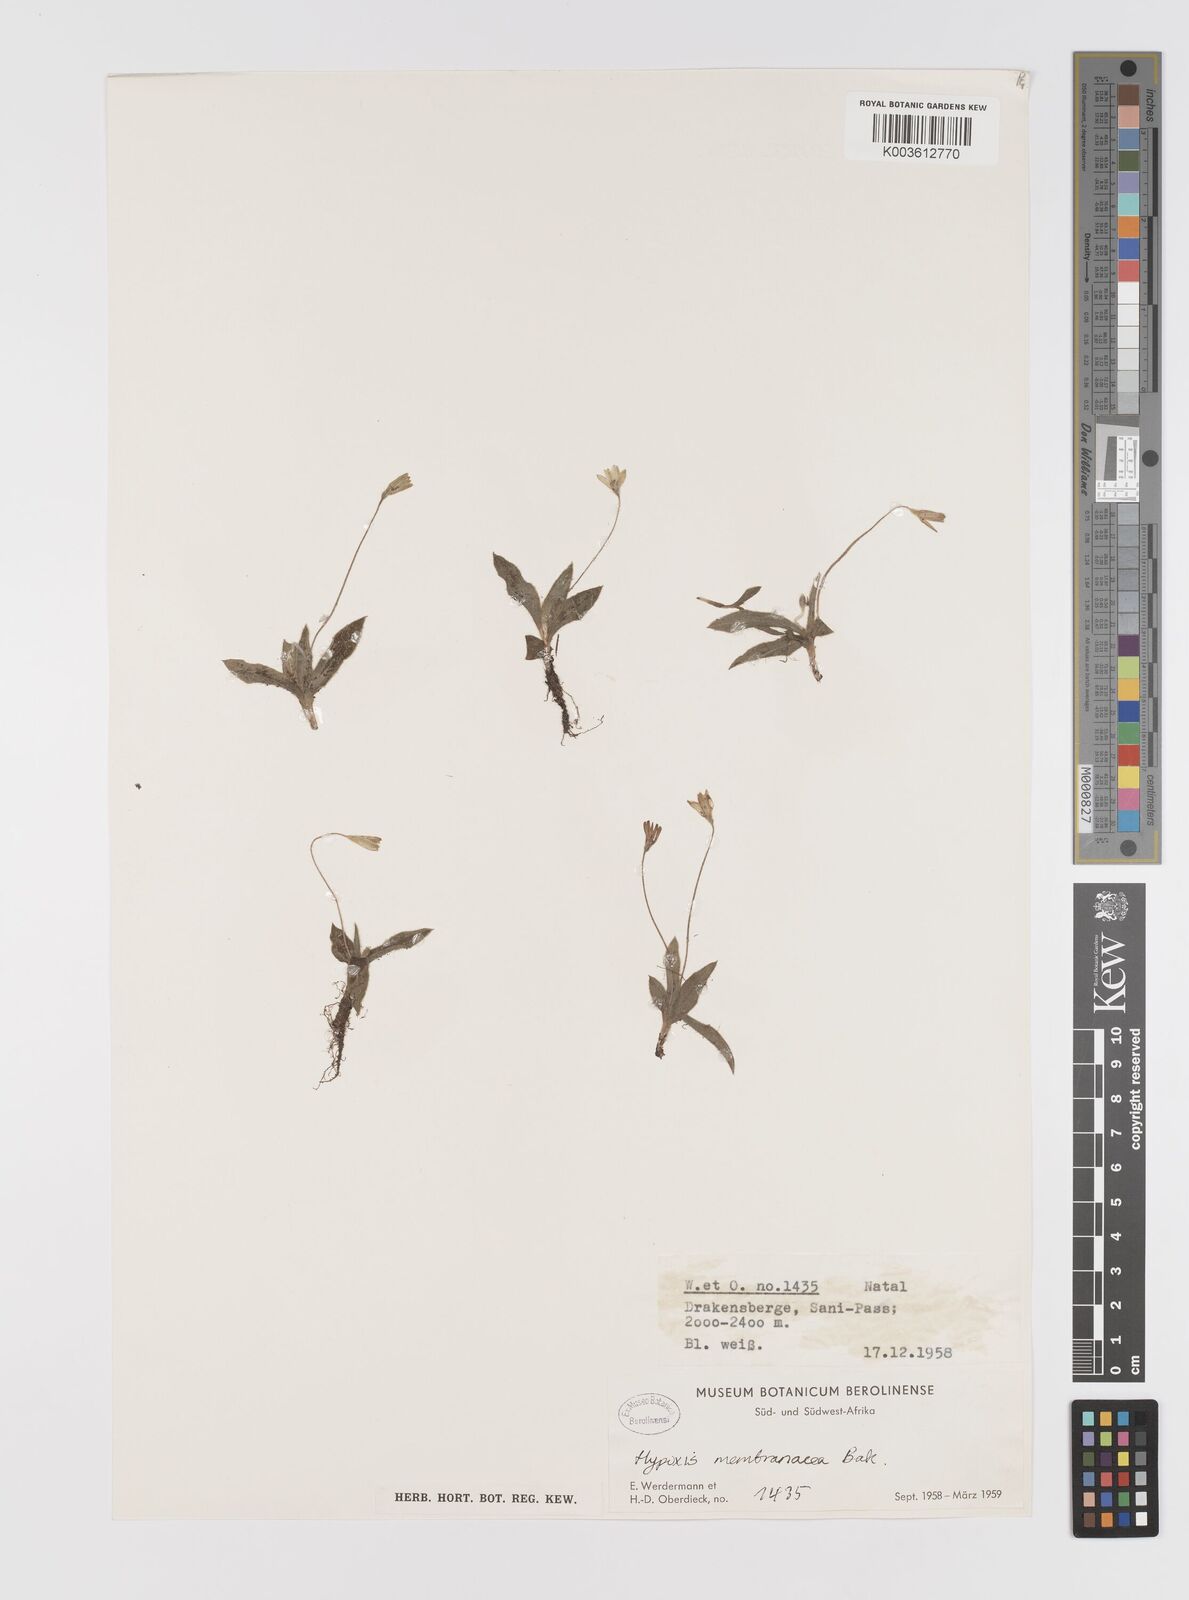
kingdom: Plantae
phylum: Tracheophyta
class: Liliopsida
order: Asparagales
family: Hypoxidaceae
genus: Hypoxis
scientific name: Hypoxis parvula
